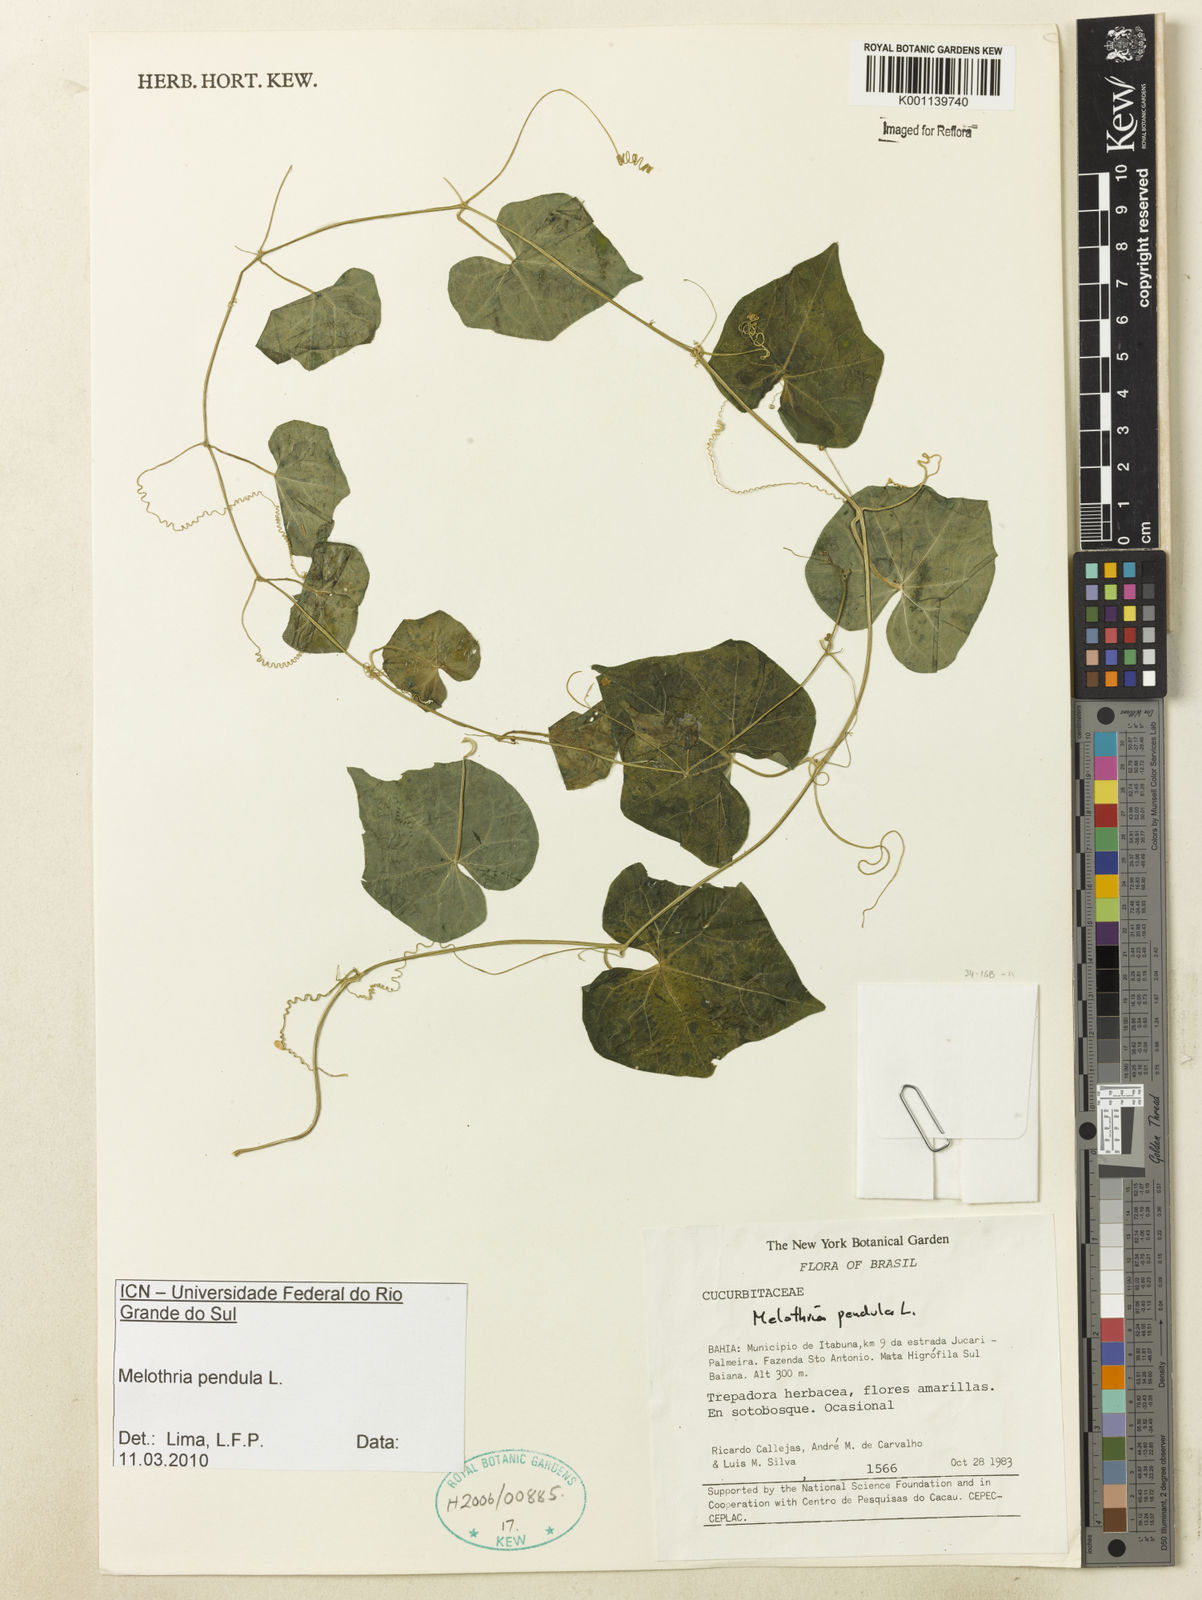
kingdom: Plantae
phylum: Tracheophyta
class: Magnoliopsida
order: Cucurbitales
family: Cucurbitaceae
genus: Melothria
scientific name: Melothria pendula
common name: Creeping-cucumber
